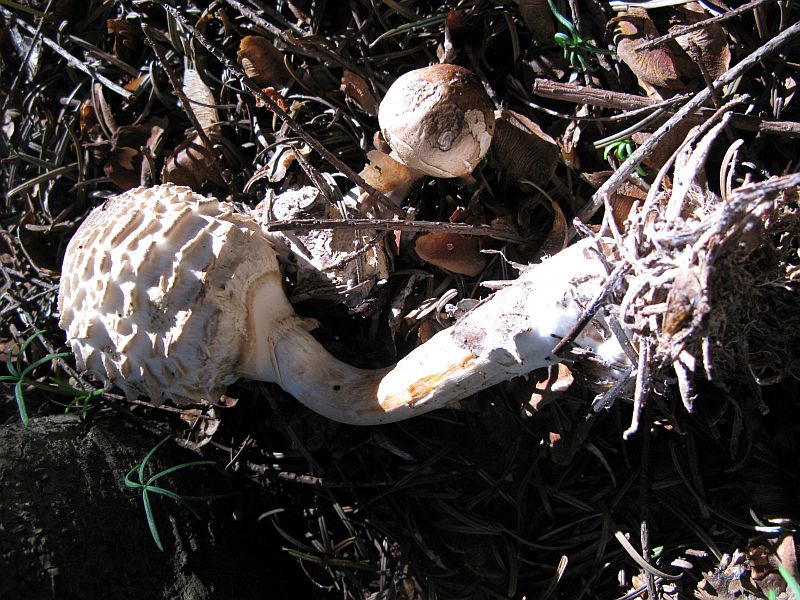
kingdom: Fungi
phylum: Basidiomycota
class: Agaricomycetes
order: Agaricales
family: Agaricaceae
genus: Chlorophyllum
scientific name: Chlorophyllum olivieri
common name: almindelig rabarberhat
